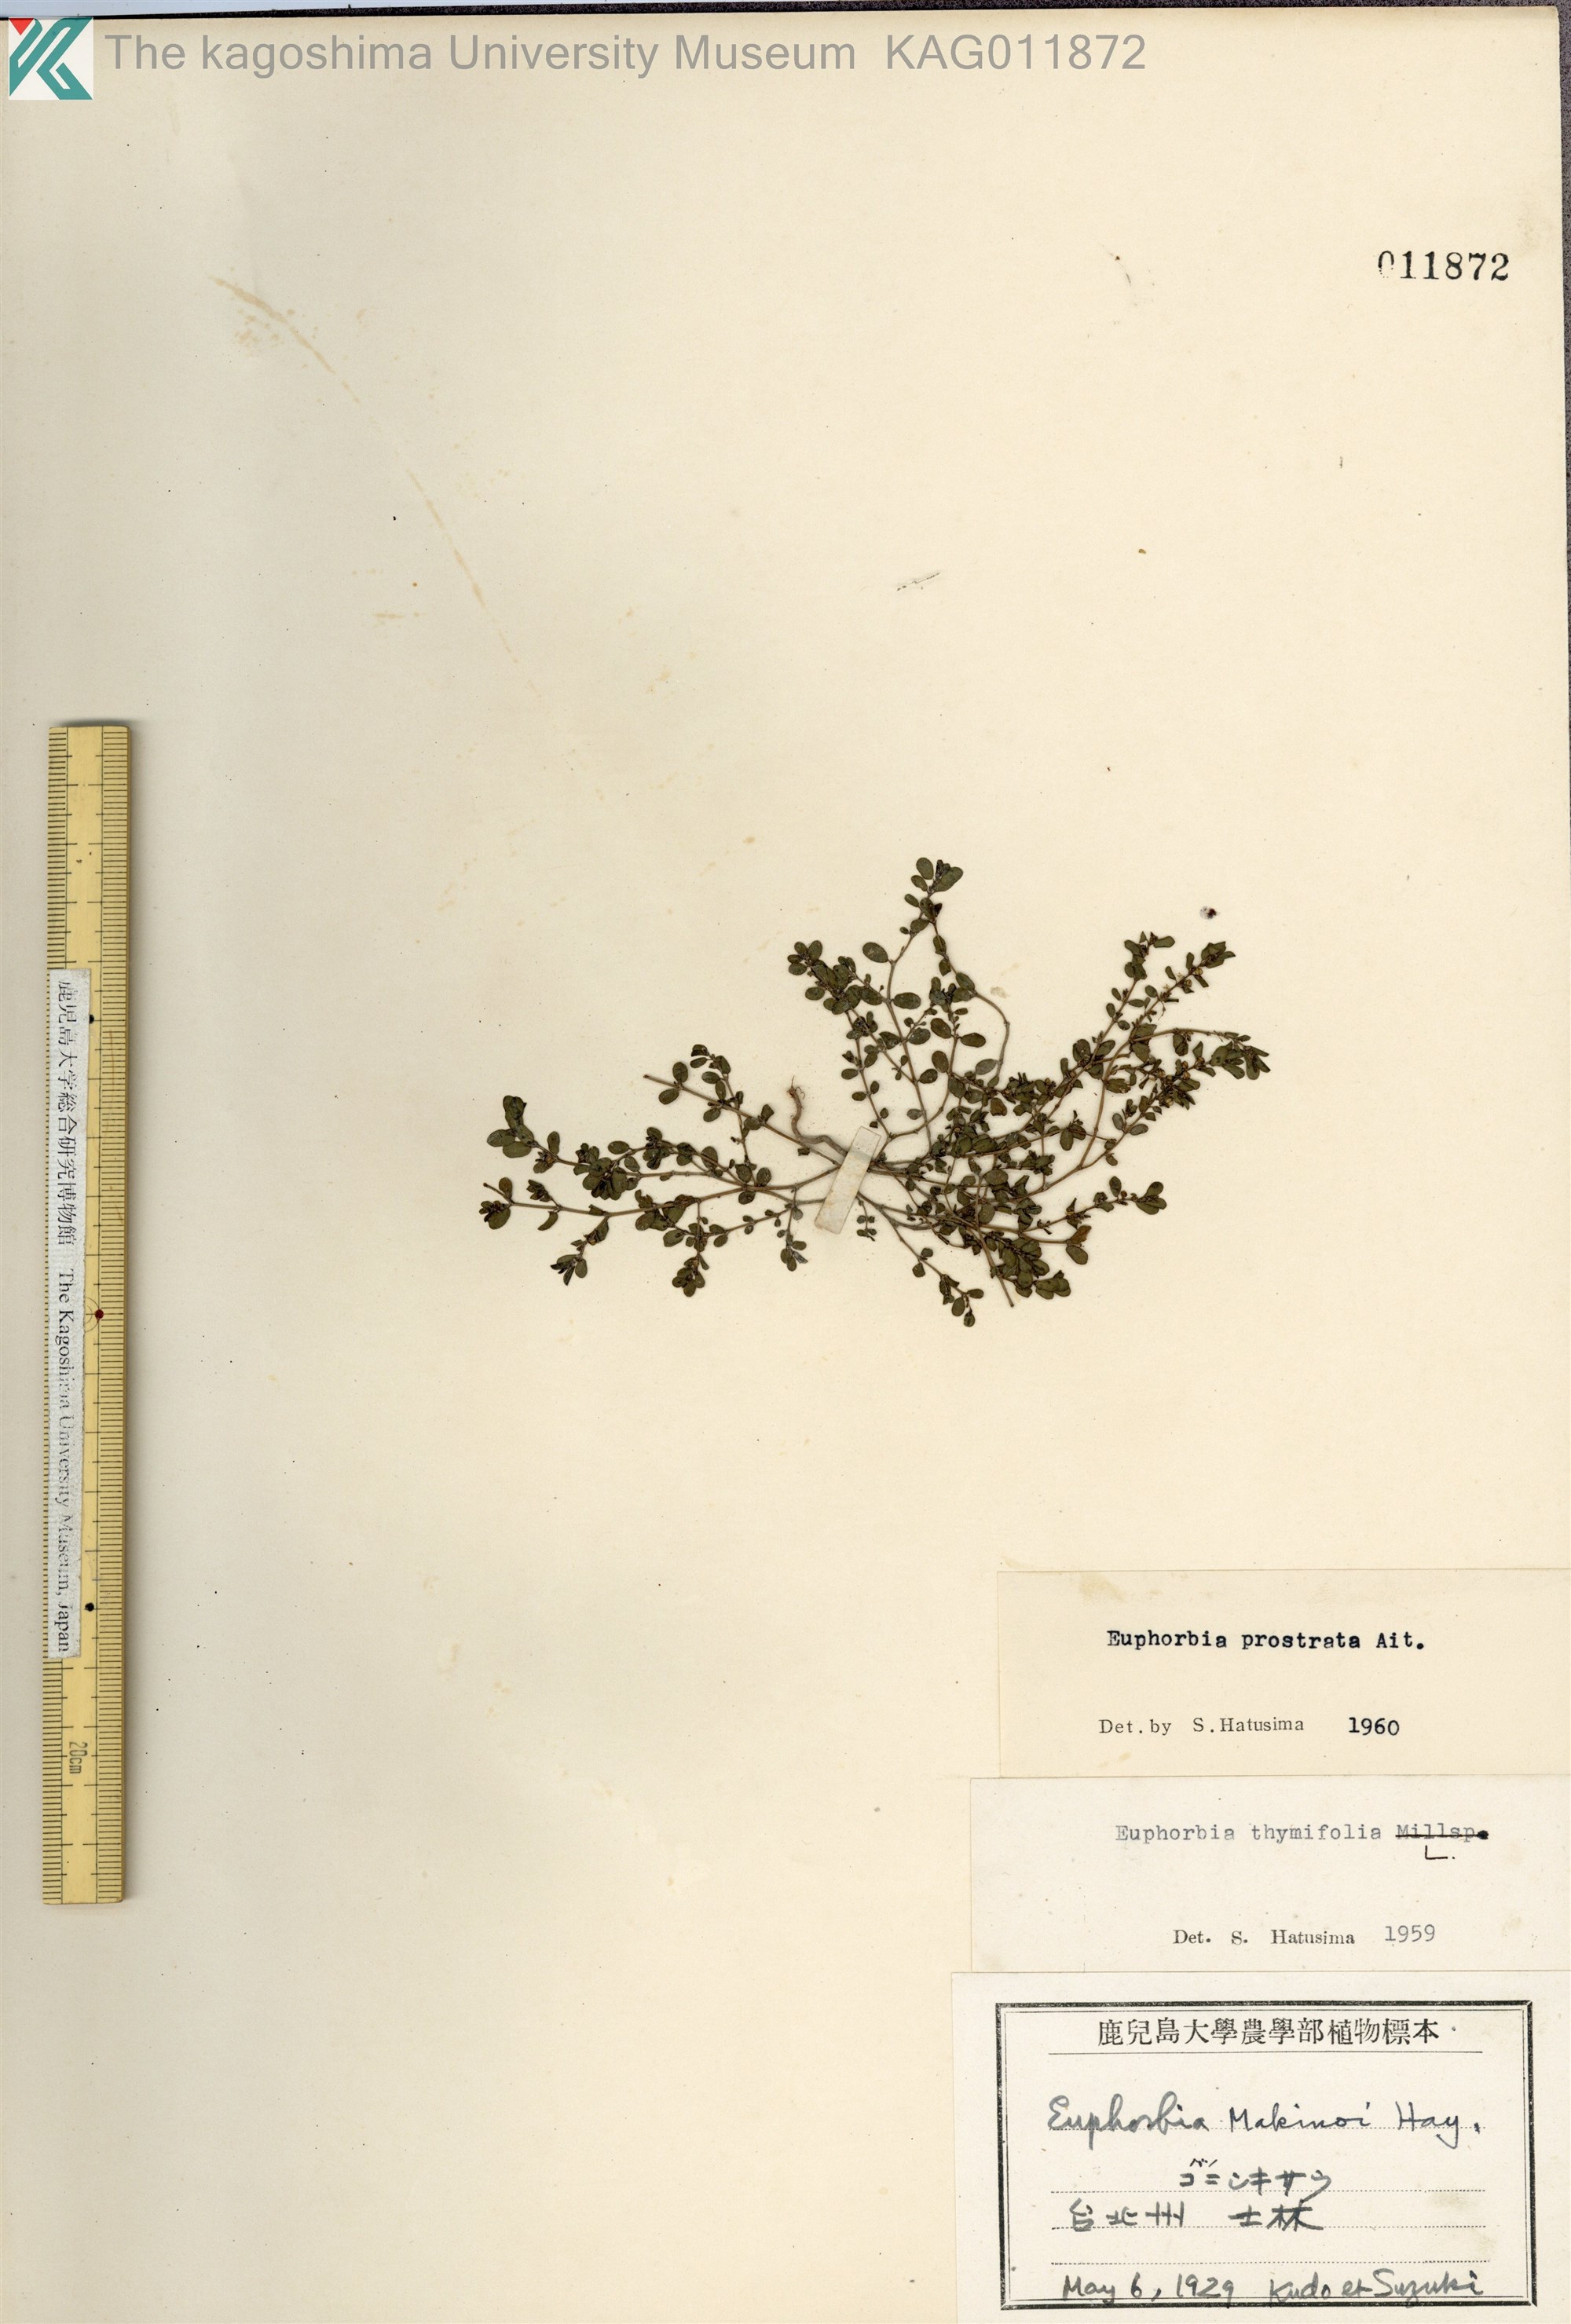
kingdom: Plantae
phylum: Tracheophyta
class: Magnoliopsida
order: Malpighiales
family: Euphorbiaceae
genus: Euphorbia
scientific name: Euphorbia prostrata
